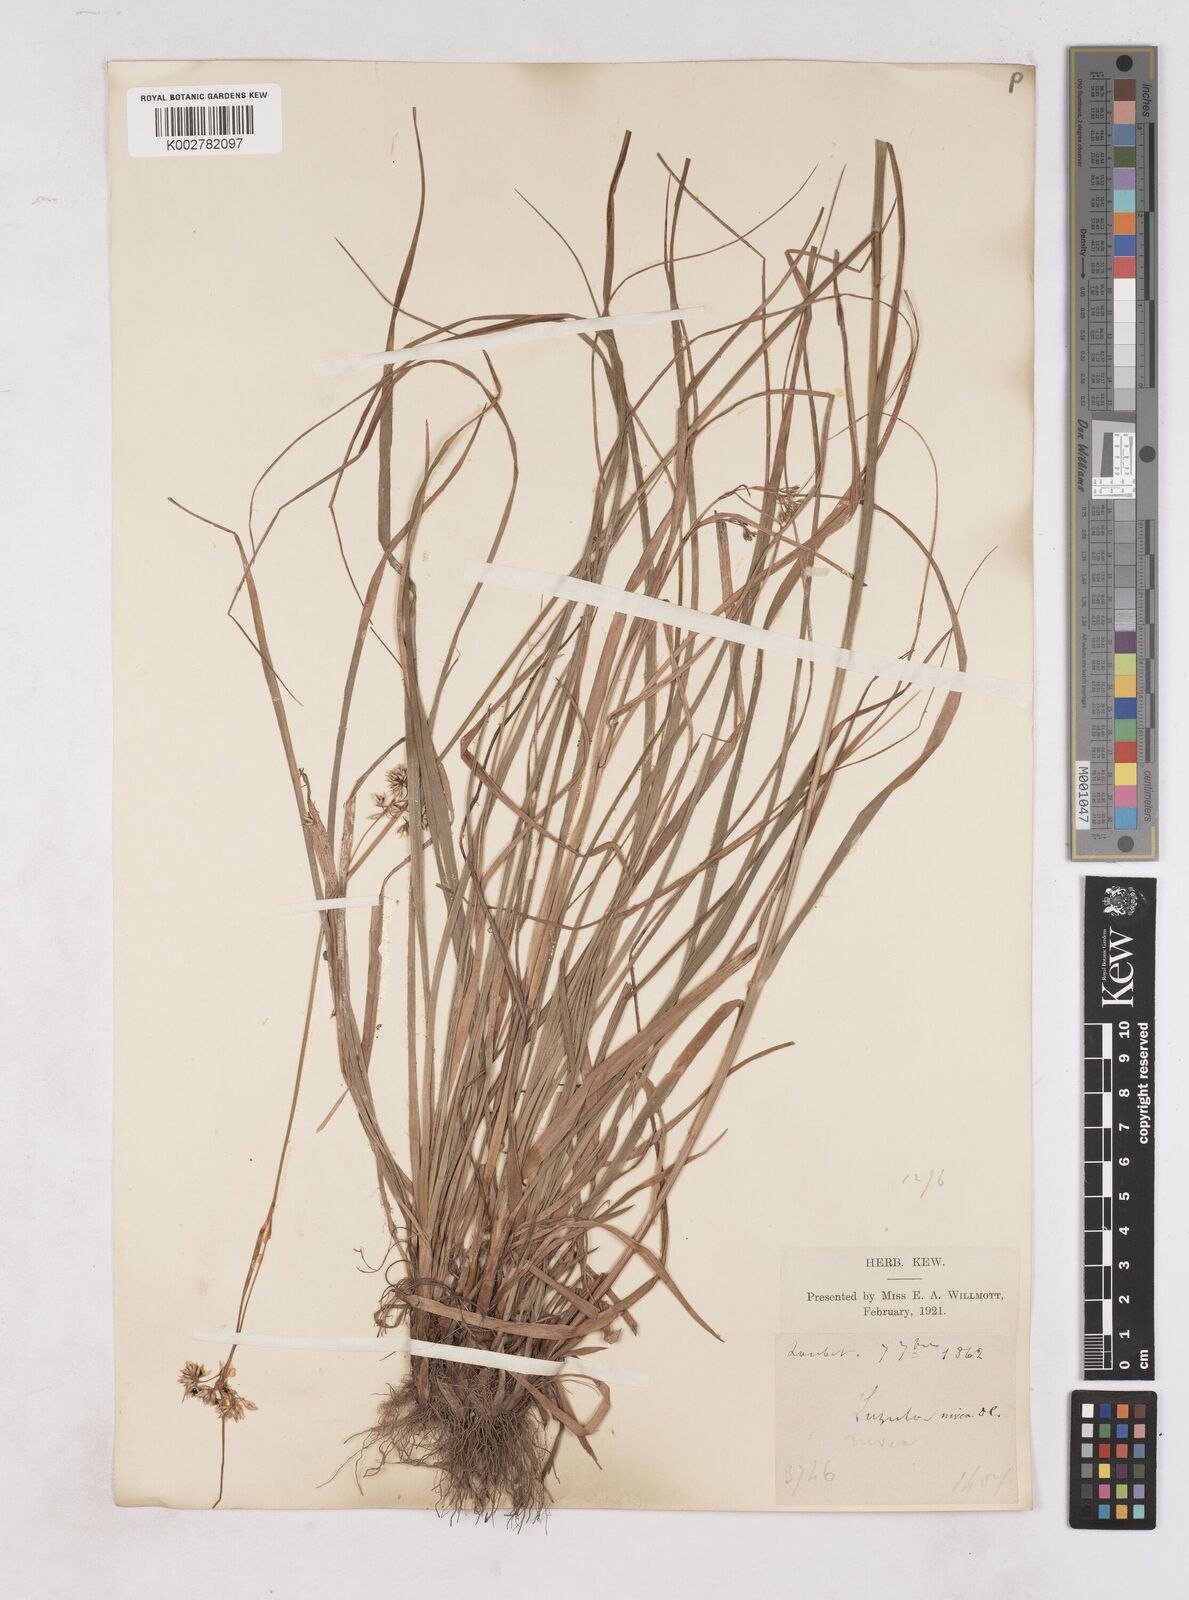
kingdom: Plantae
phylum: Tracheophyta
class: Liliopsida
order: Poales
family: Juncaceae
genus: Luzula
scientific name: Luzula nivea
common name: Snow-white wood-rush
